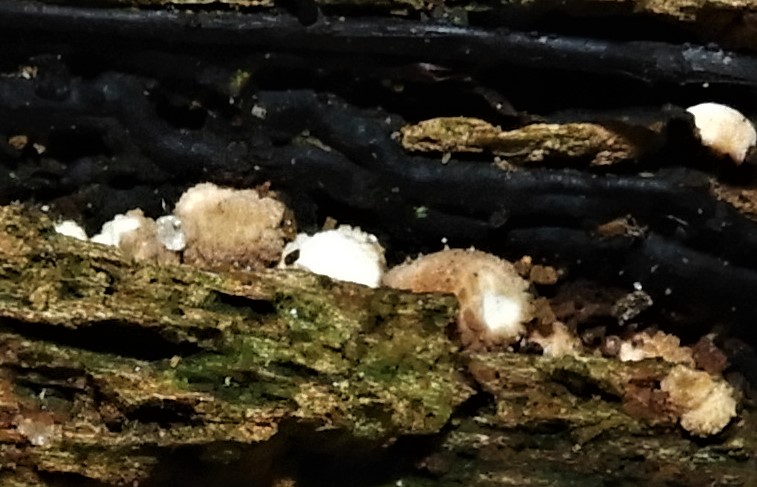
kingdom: Fungi
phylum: Basidiomycota
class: Agaricomycetes
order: Agaricales
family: Lycoperdaceae
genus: Apioperdon
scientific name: Apioperdon pyriforme
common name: pære-støvbold
